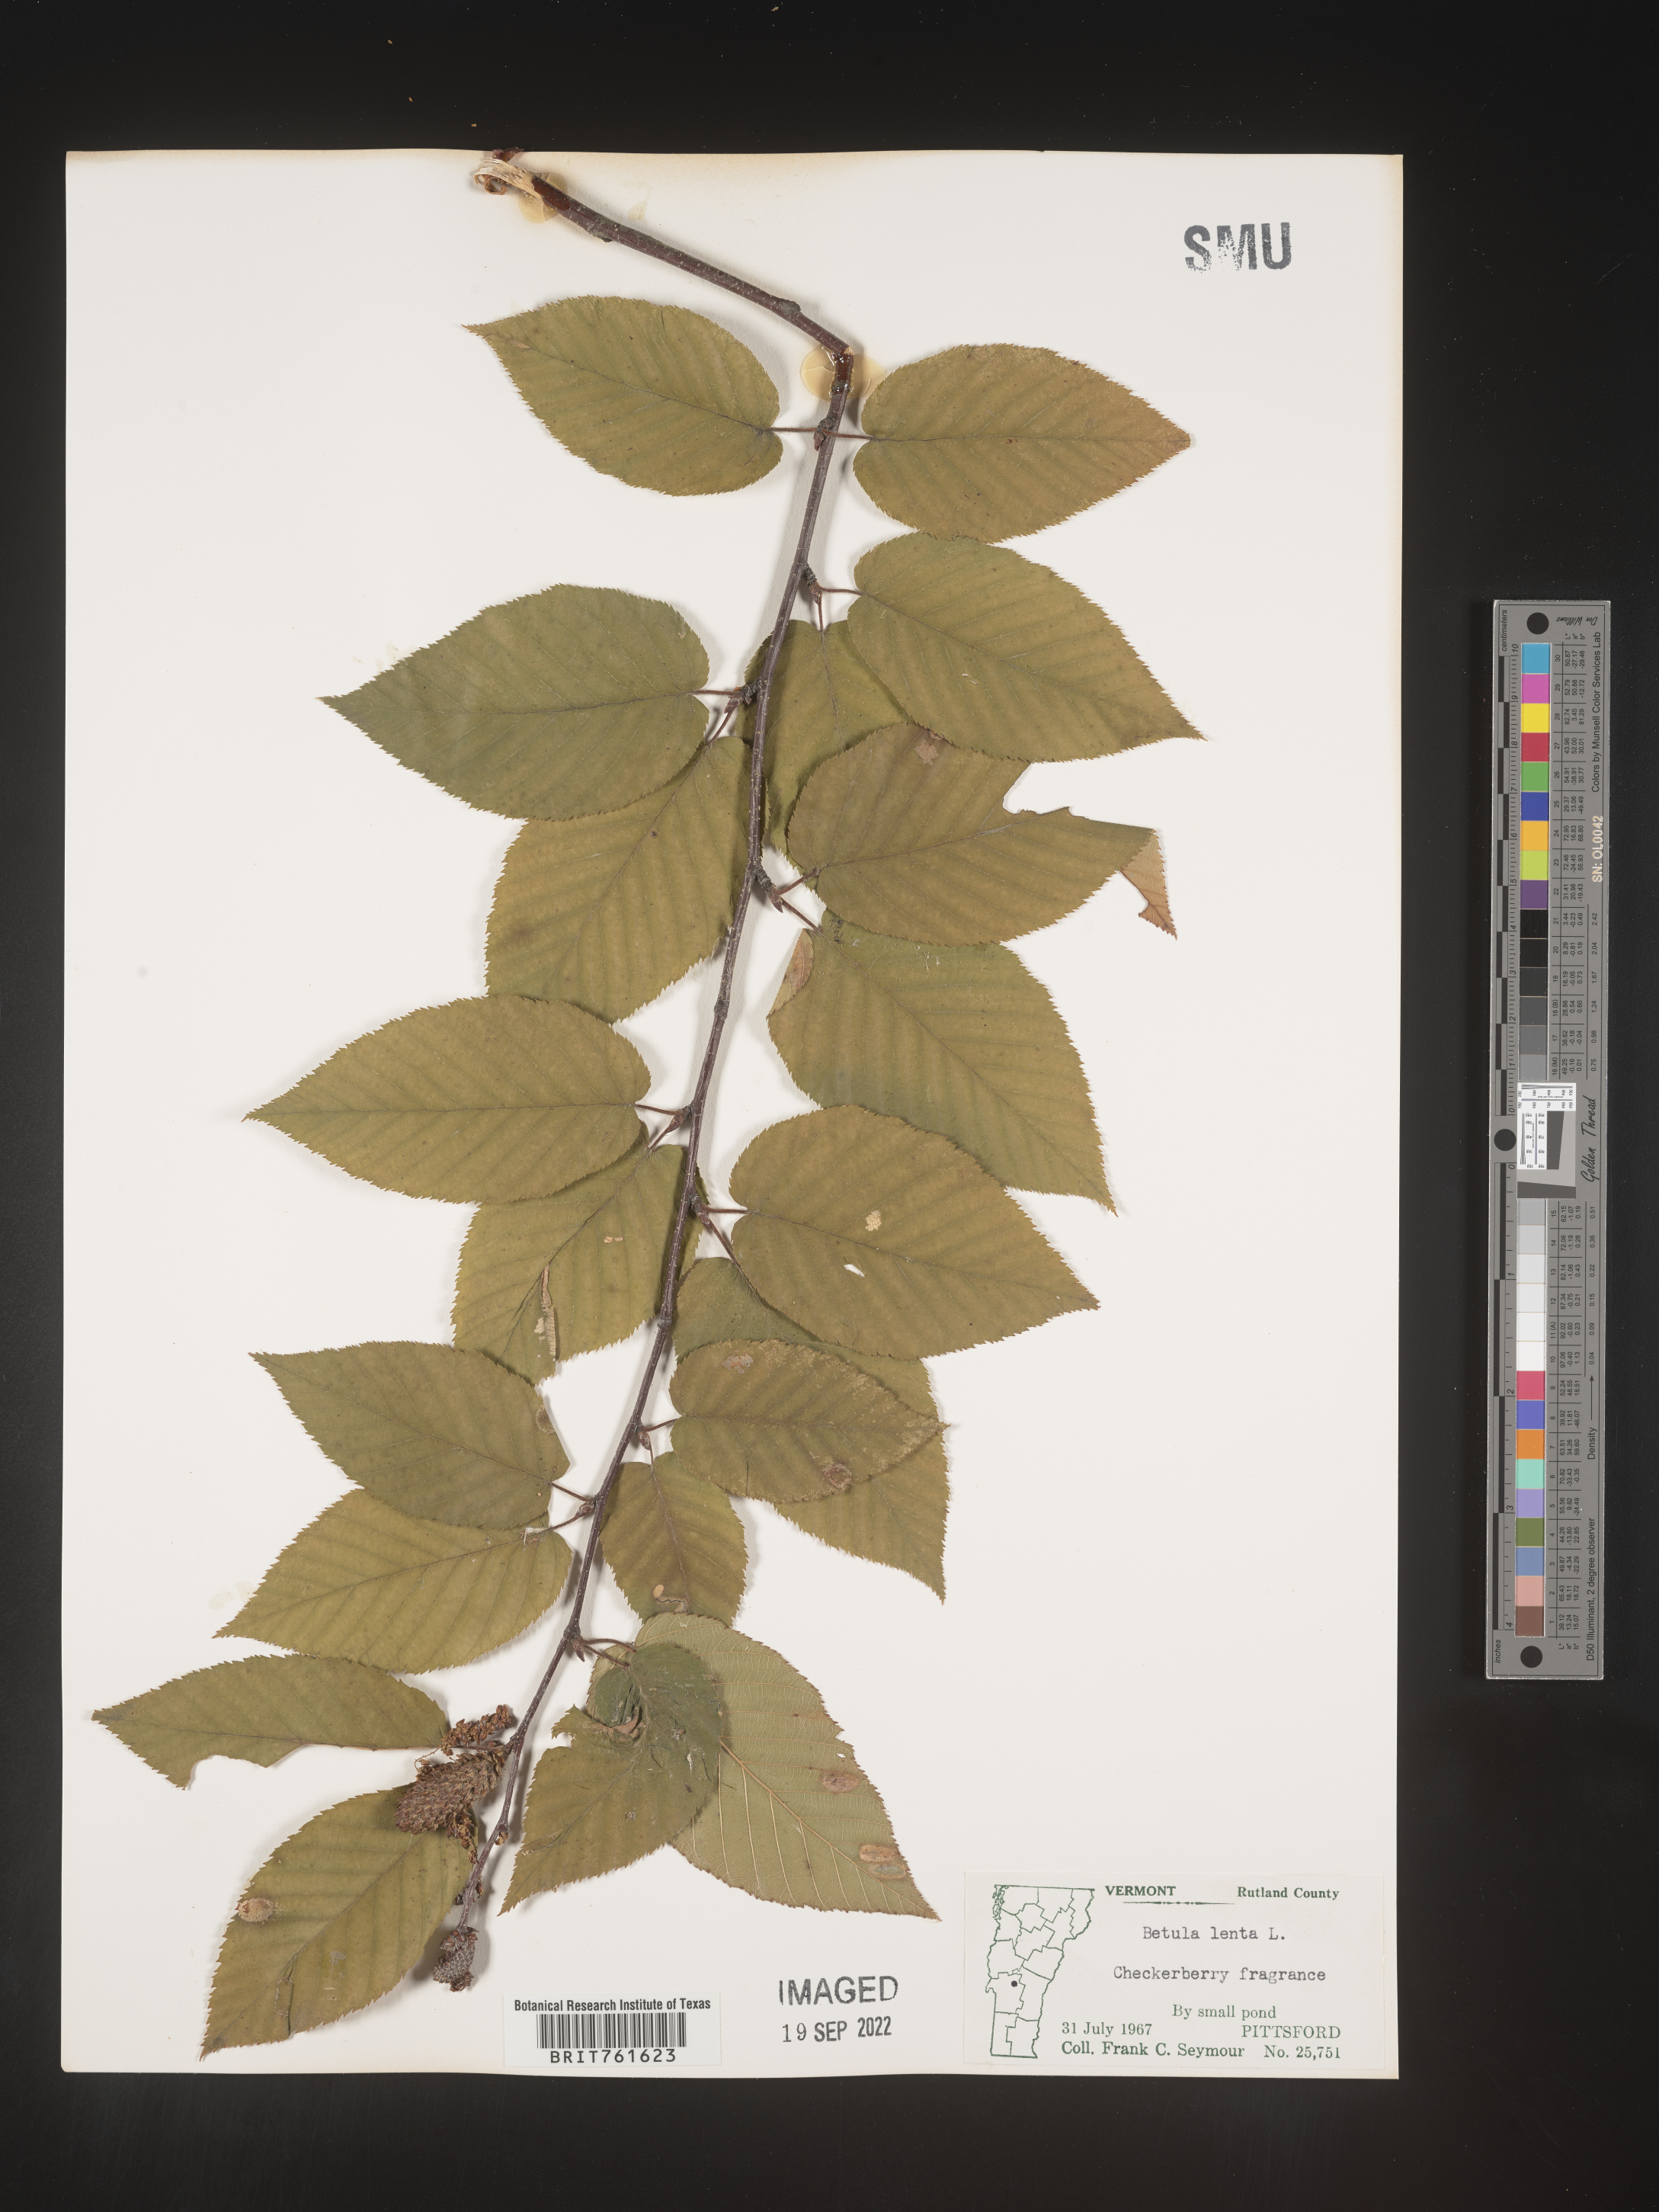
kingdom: Plantae
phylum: Tracheophyta
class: Magnoliopsida
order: Fagales
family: Betulaceae
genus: Betula
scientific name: Betula lenta
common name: Black birch
